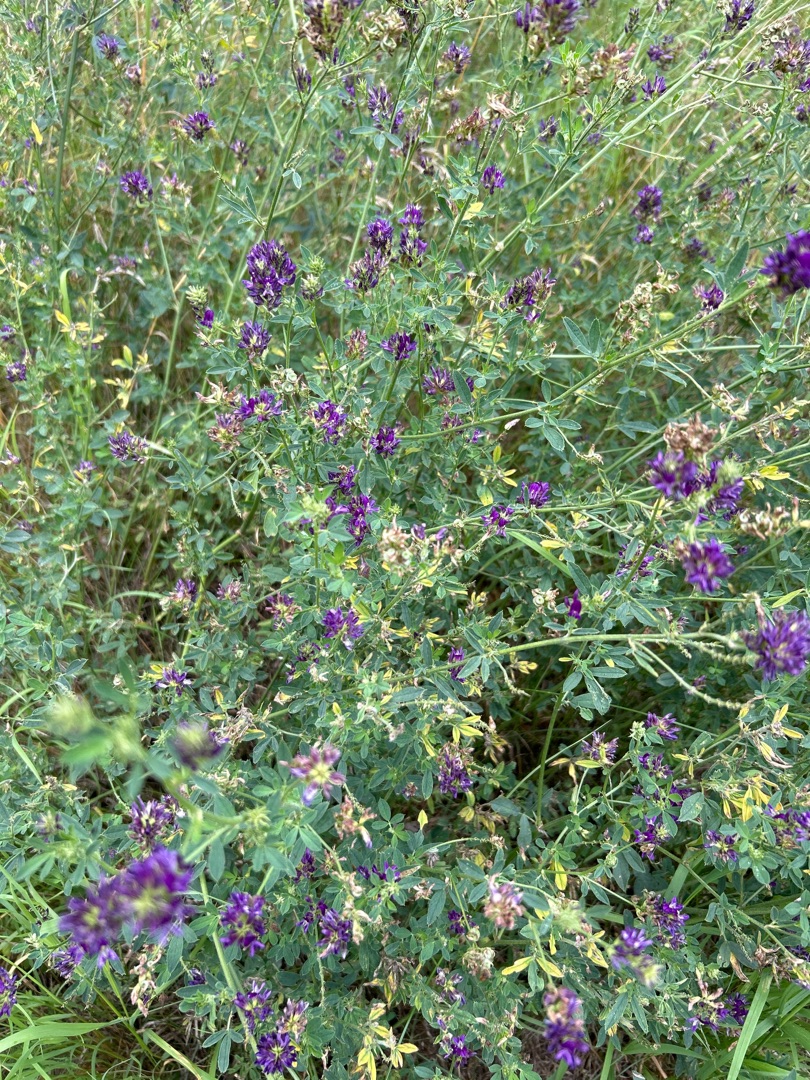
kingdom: Plantae
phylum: Tracheophyta
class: Magnoliopsida
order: Fabales
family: Fabaceae
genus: Medicago
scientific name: Medicago sativa
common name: Lucerne
